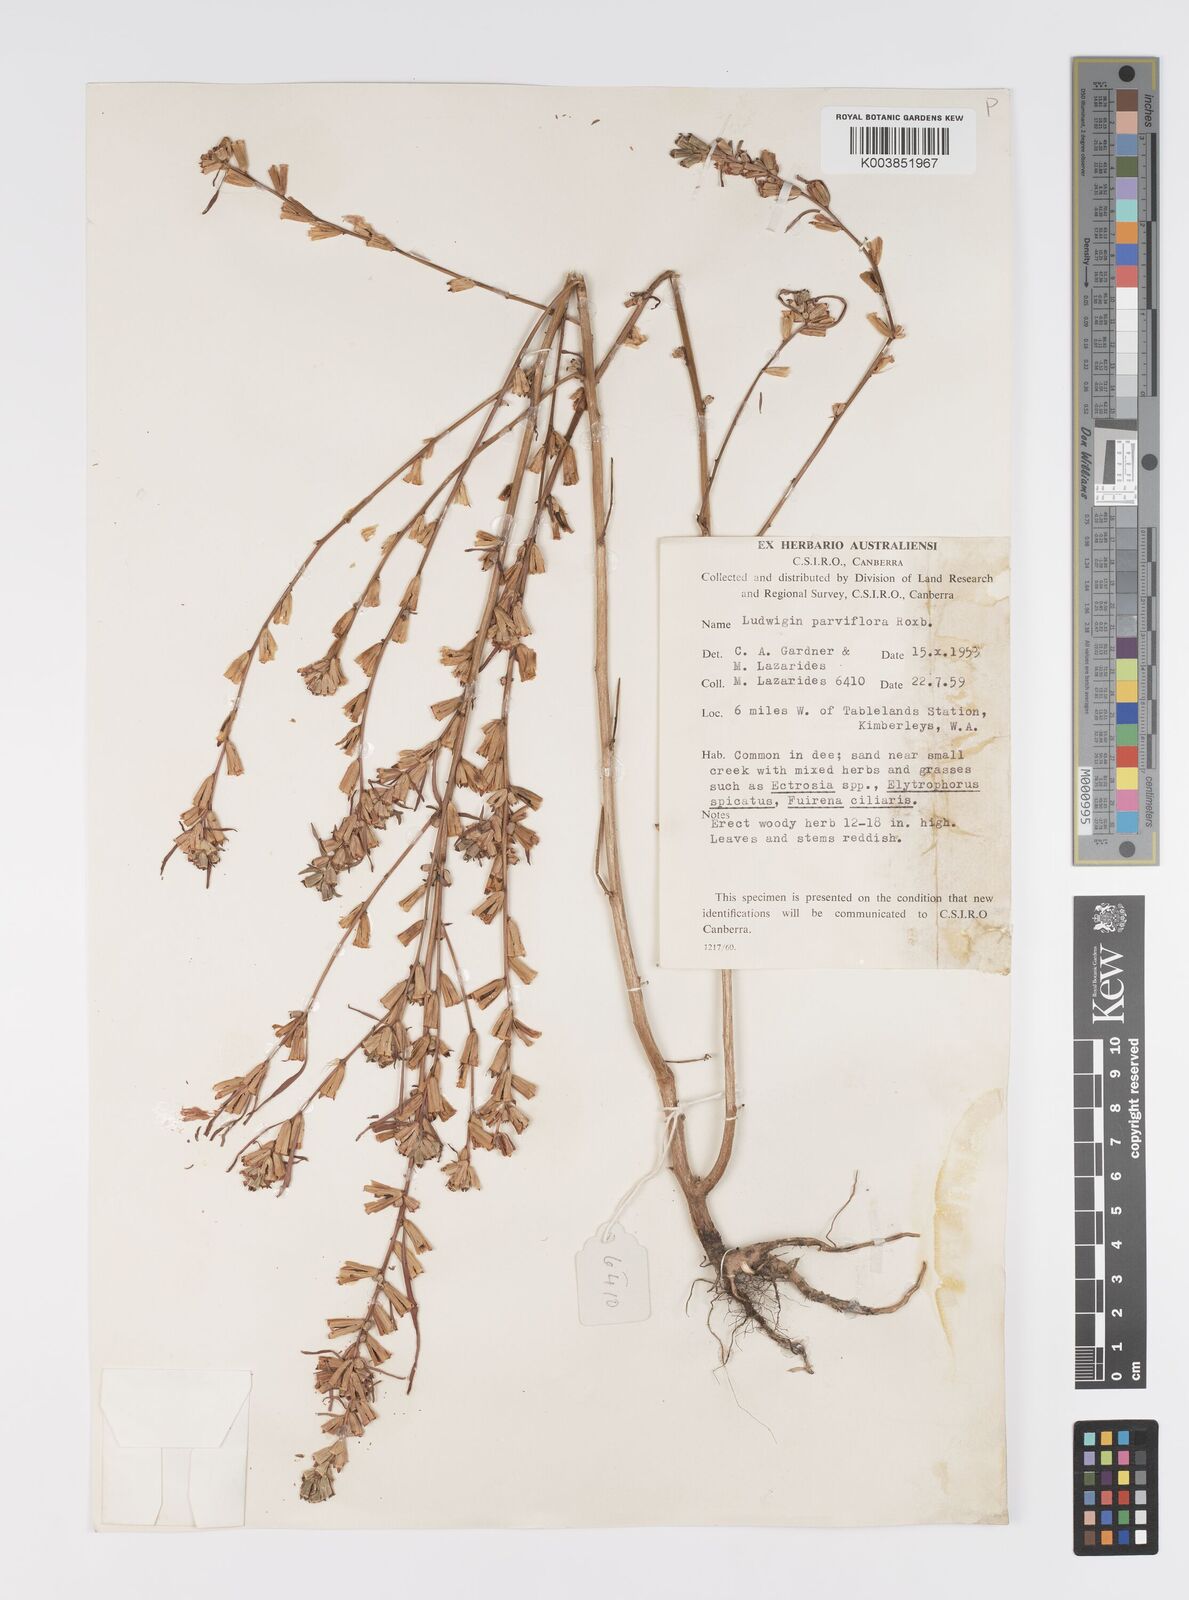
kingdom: Plantae
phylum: Tracheophyta
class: Magnoliopsida
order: Myrtales
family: Onagraceae
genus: Ludwigia
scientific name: Ludwigia perennis
